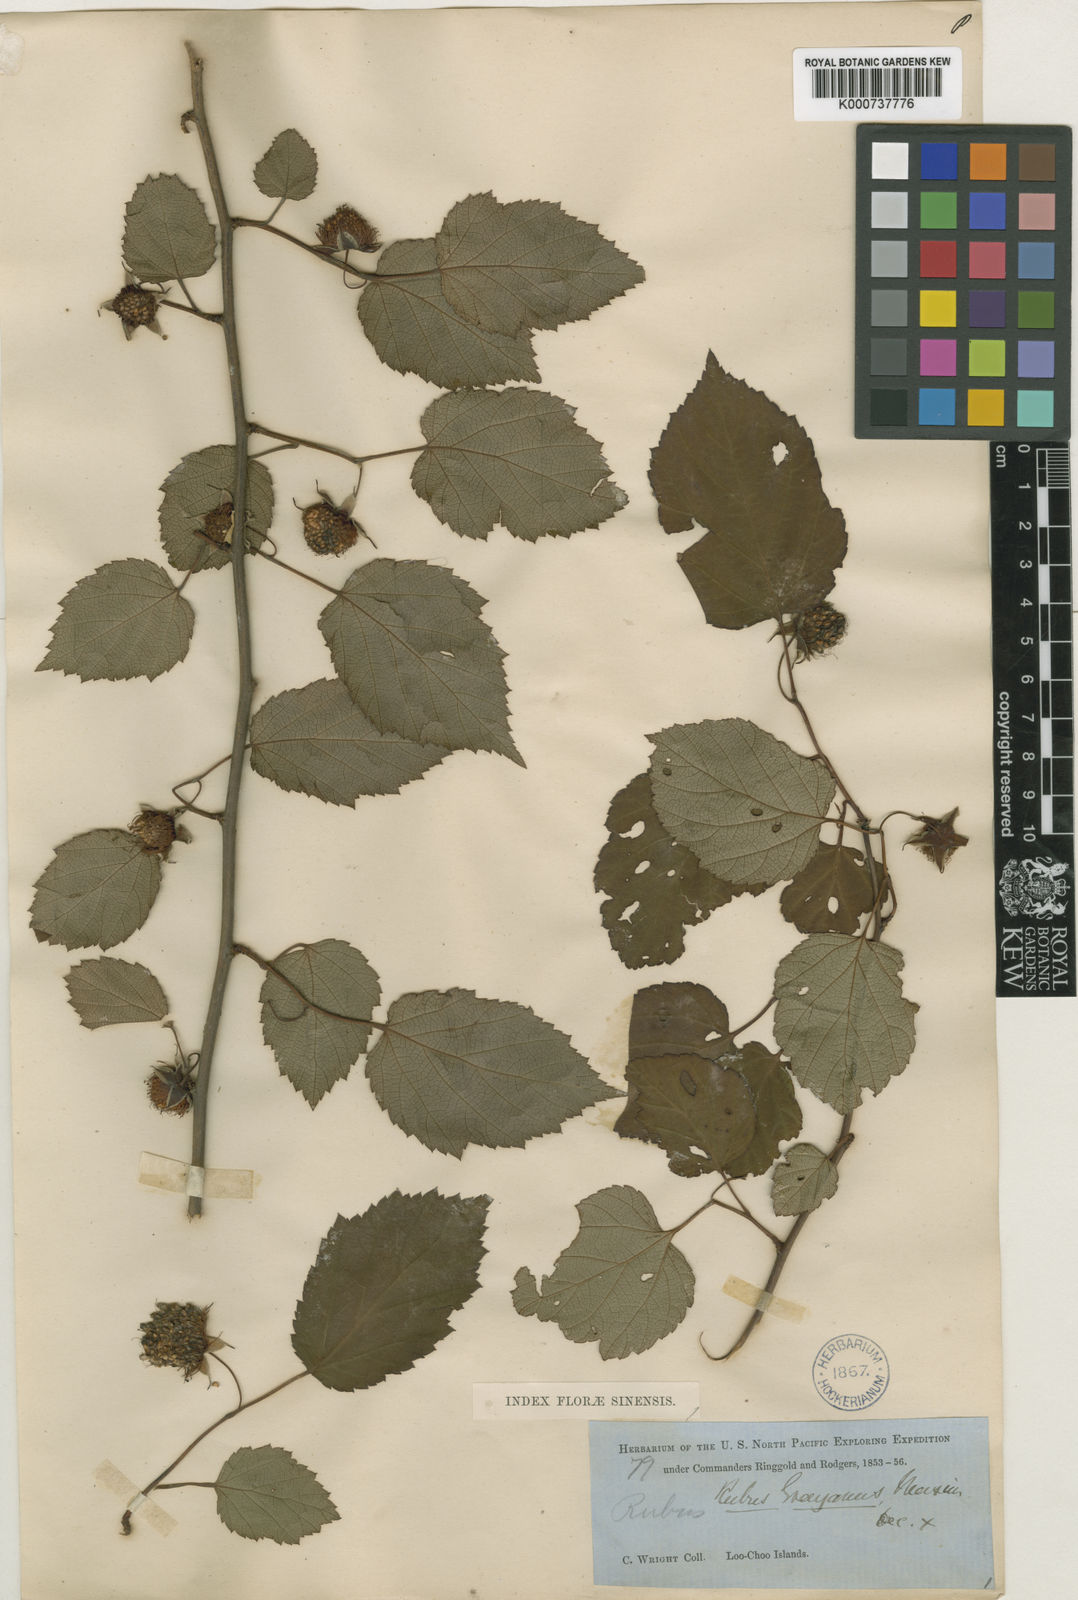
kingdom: Plantae
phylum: Tracheophyta
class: Magnoliopsida
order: Rosales
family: Rosaceae
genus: Rubus
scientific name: Rubus grayanus
